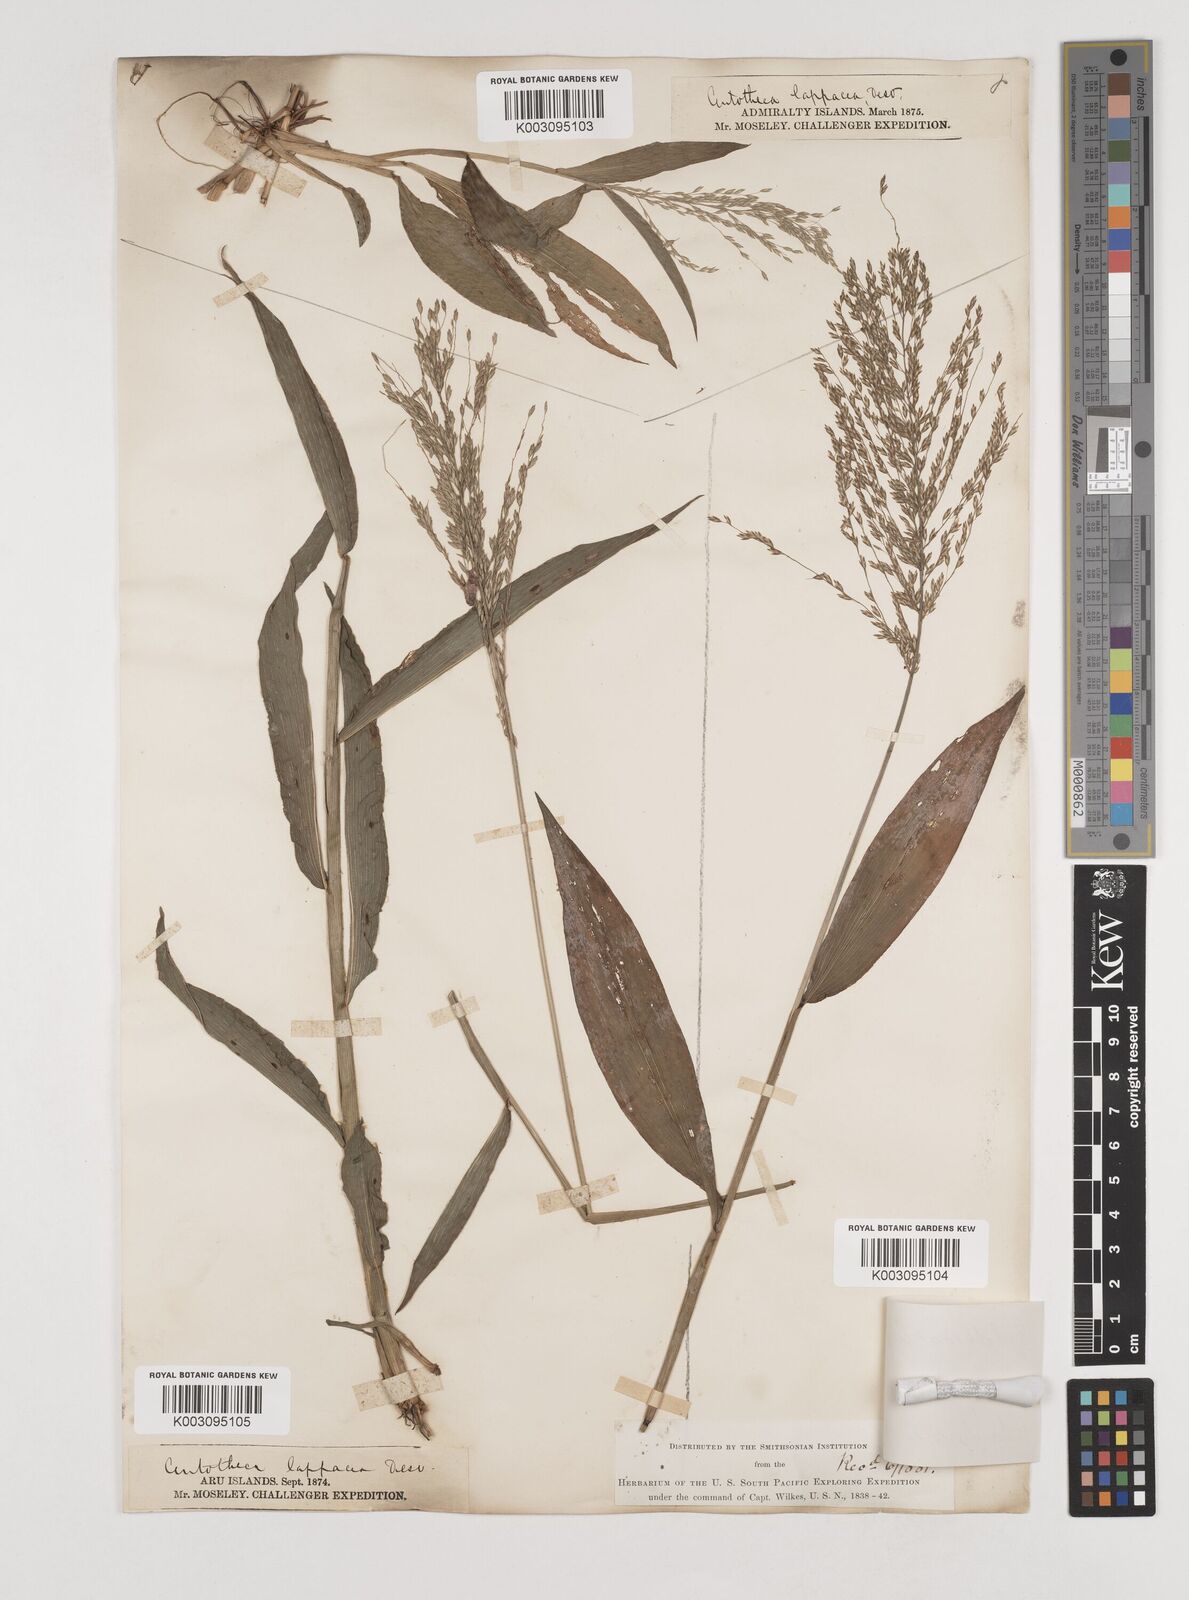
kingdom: Plantae
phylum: Tracheophyta
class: Liliopsida
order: Poales
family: Poaceae
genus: Centotheca
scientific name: Centotheca lappacea
